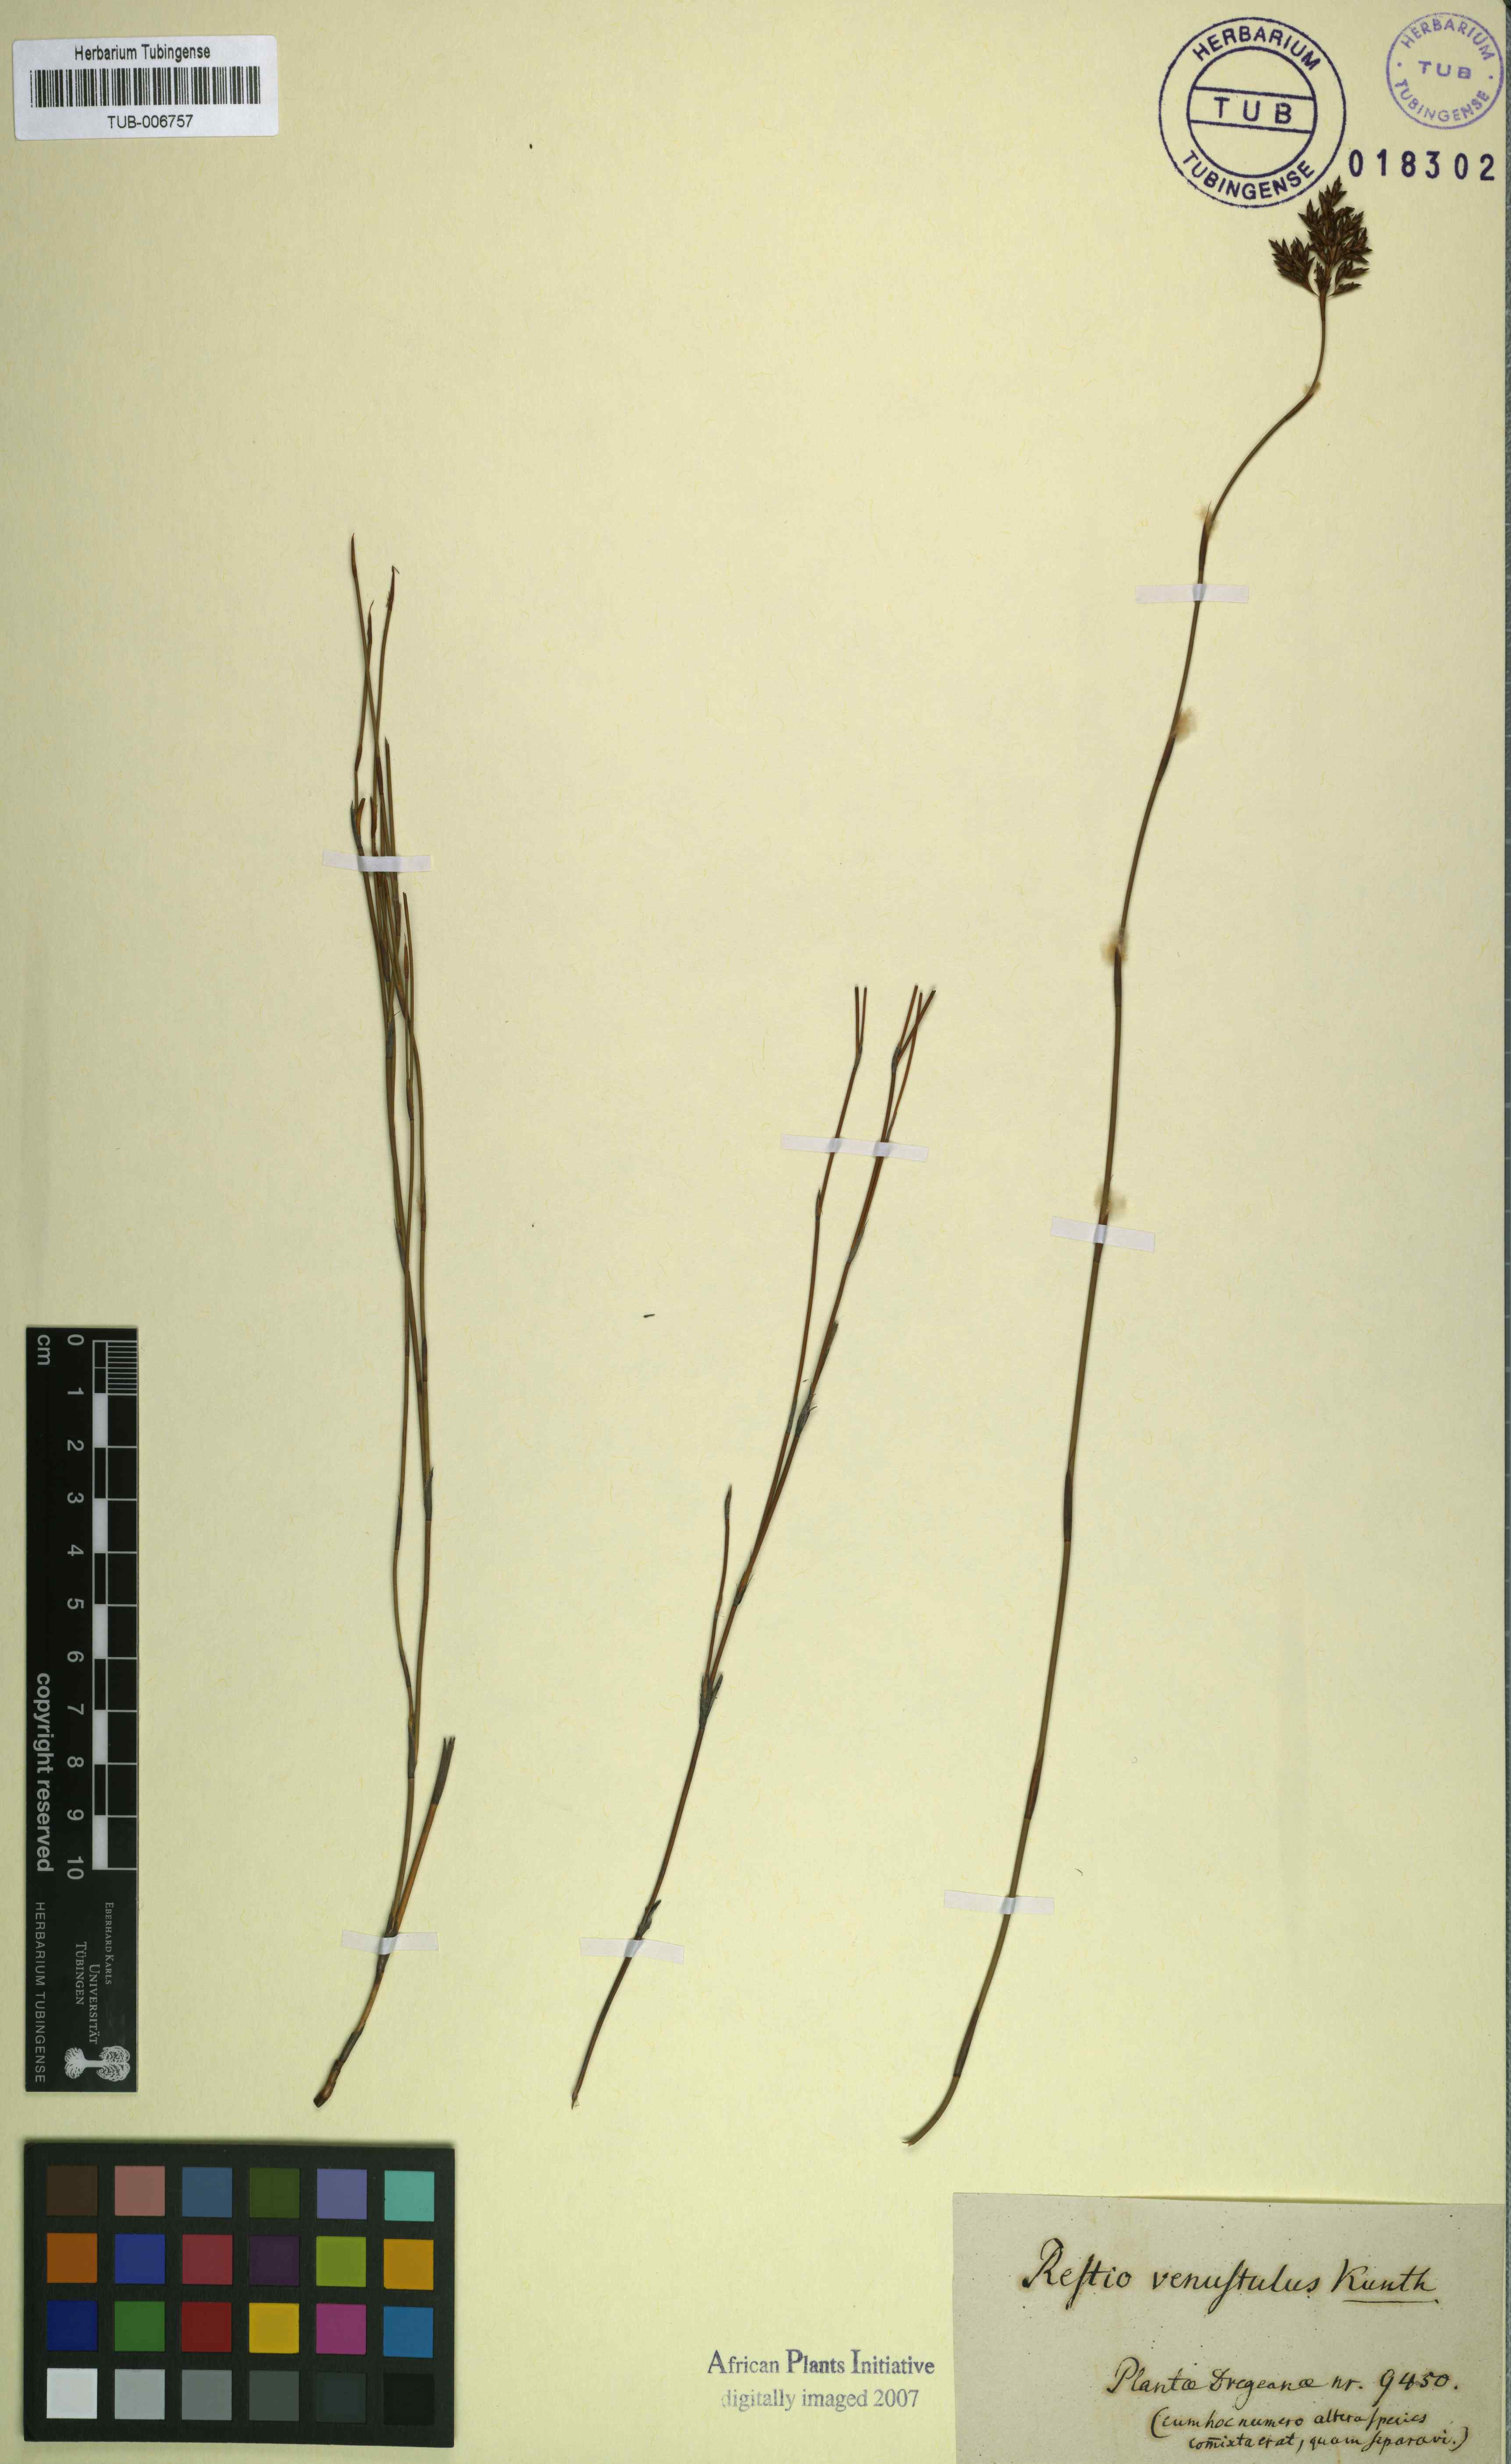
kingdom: Plantae
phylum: Tracheophyta
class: Liliopsida
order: Poales
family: Restionaceae
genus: Restio
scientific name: Restio sieberi
